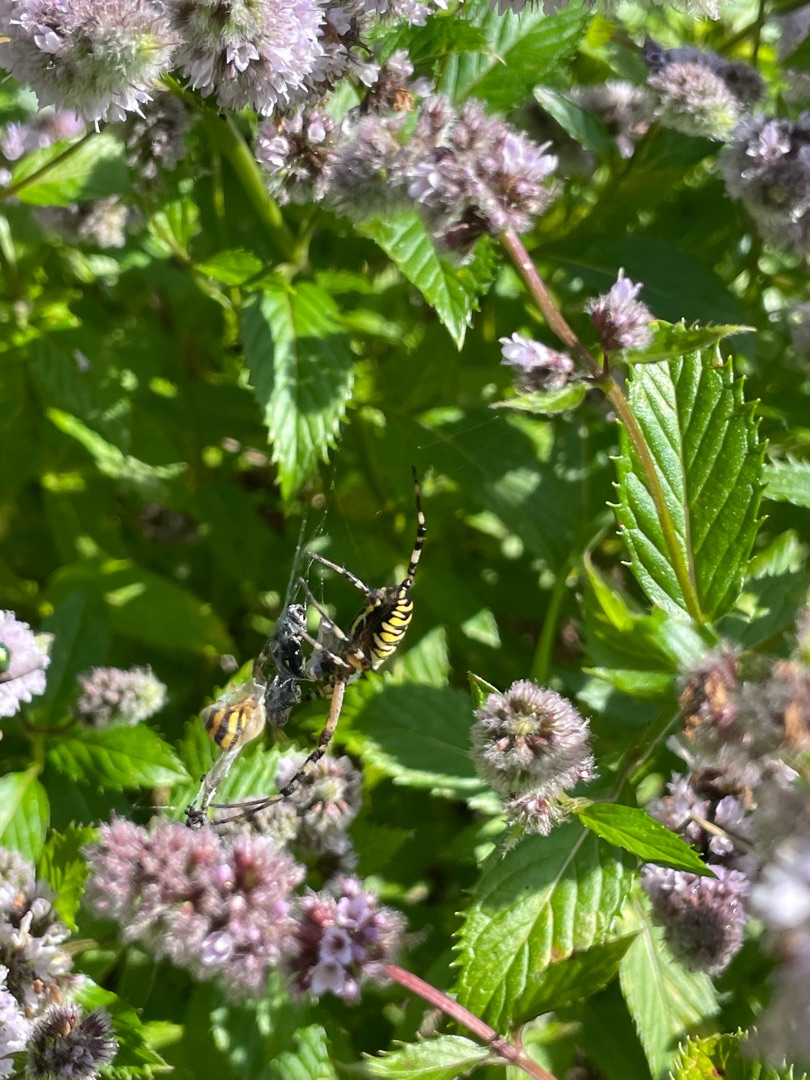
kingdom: Animalia
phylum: Arthropoda
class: Arachnida
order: Araneae
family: Araneidae
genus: Argiope
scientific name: Argiope bruennichi
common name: Hvepseedderkop
